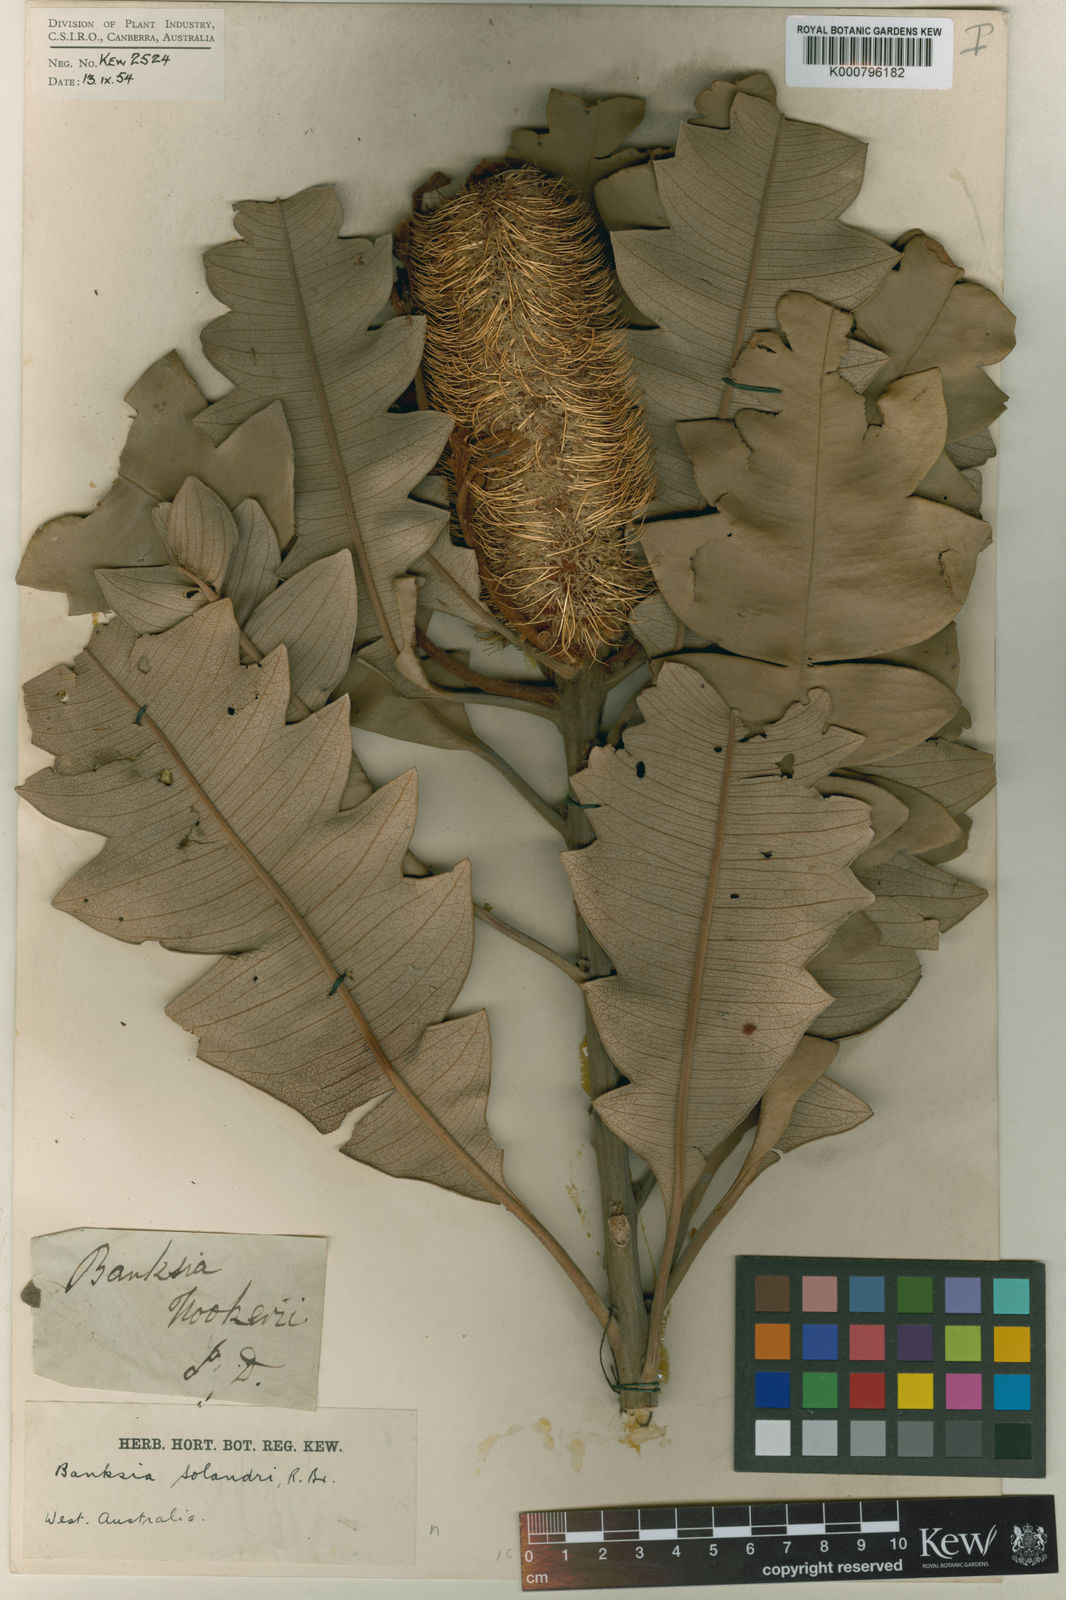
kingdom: Plantae
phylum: Tracheophyta
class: Magnoliopsida
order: Proteales
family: Proteaceae
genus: Banksia
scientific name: Banksia solandri
